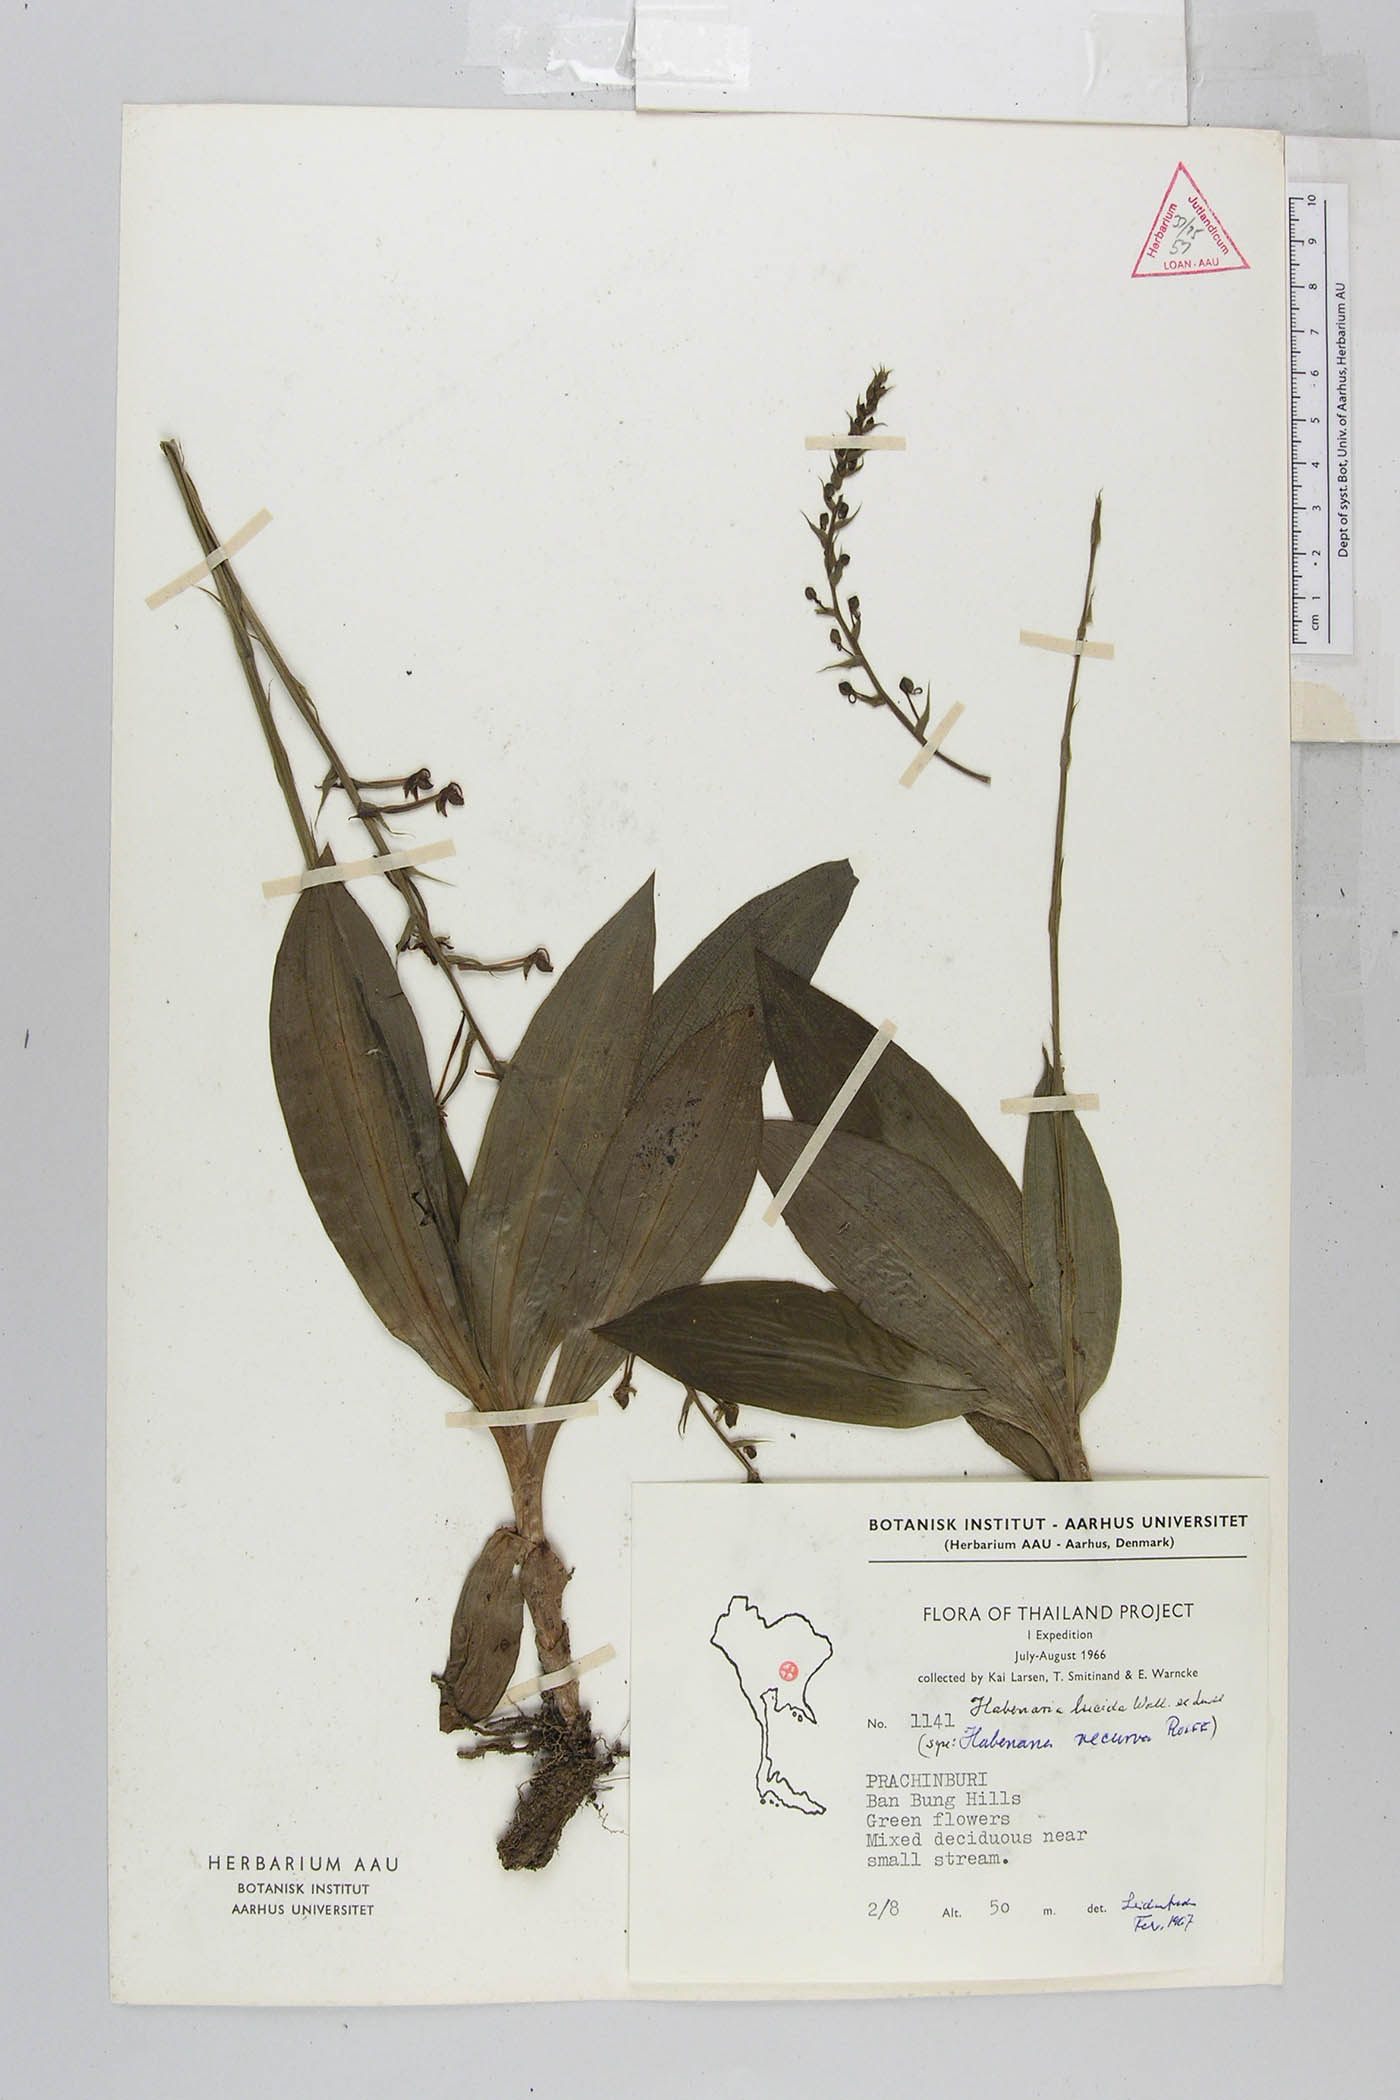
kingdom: Plantae
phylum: Tracheophyta
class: Liliopsida
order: Asparagales
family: Orchidaceae
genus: Habenaria
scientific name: Habenaria lucida
